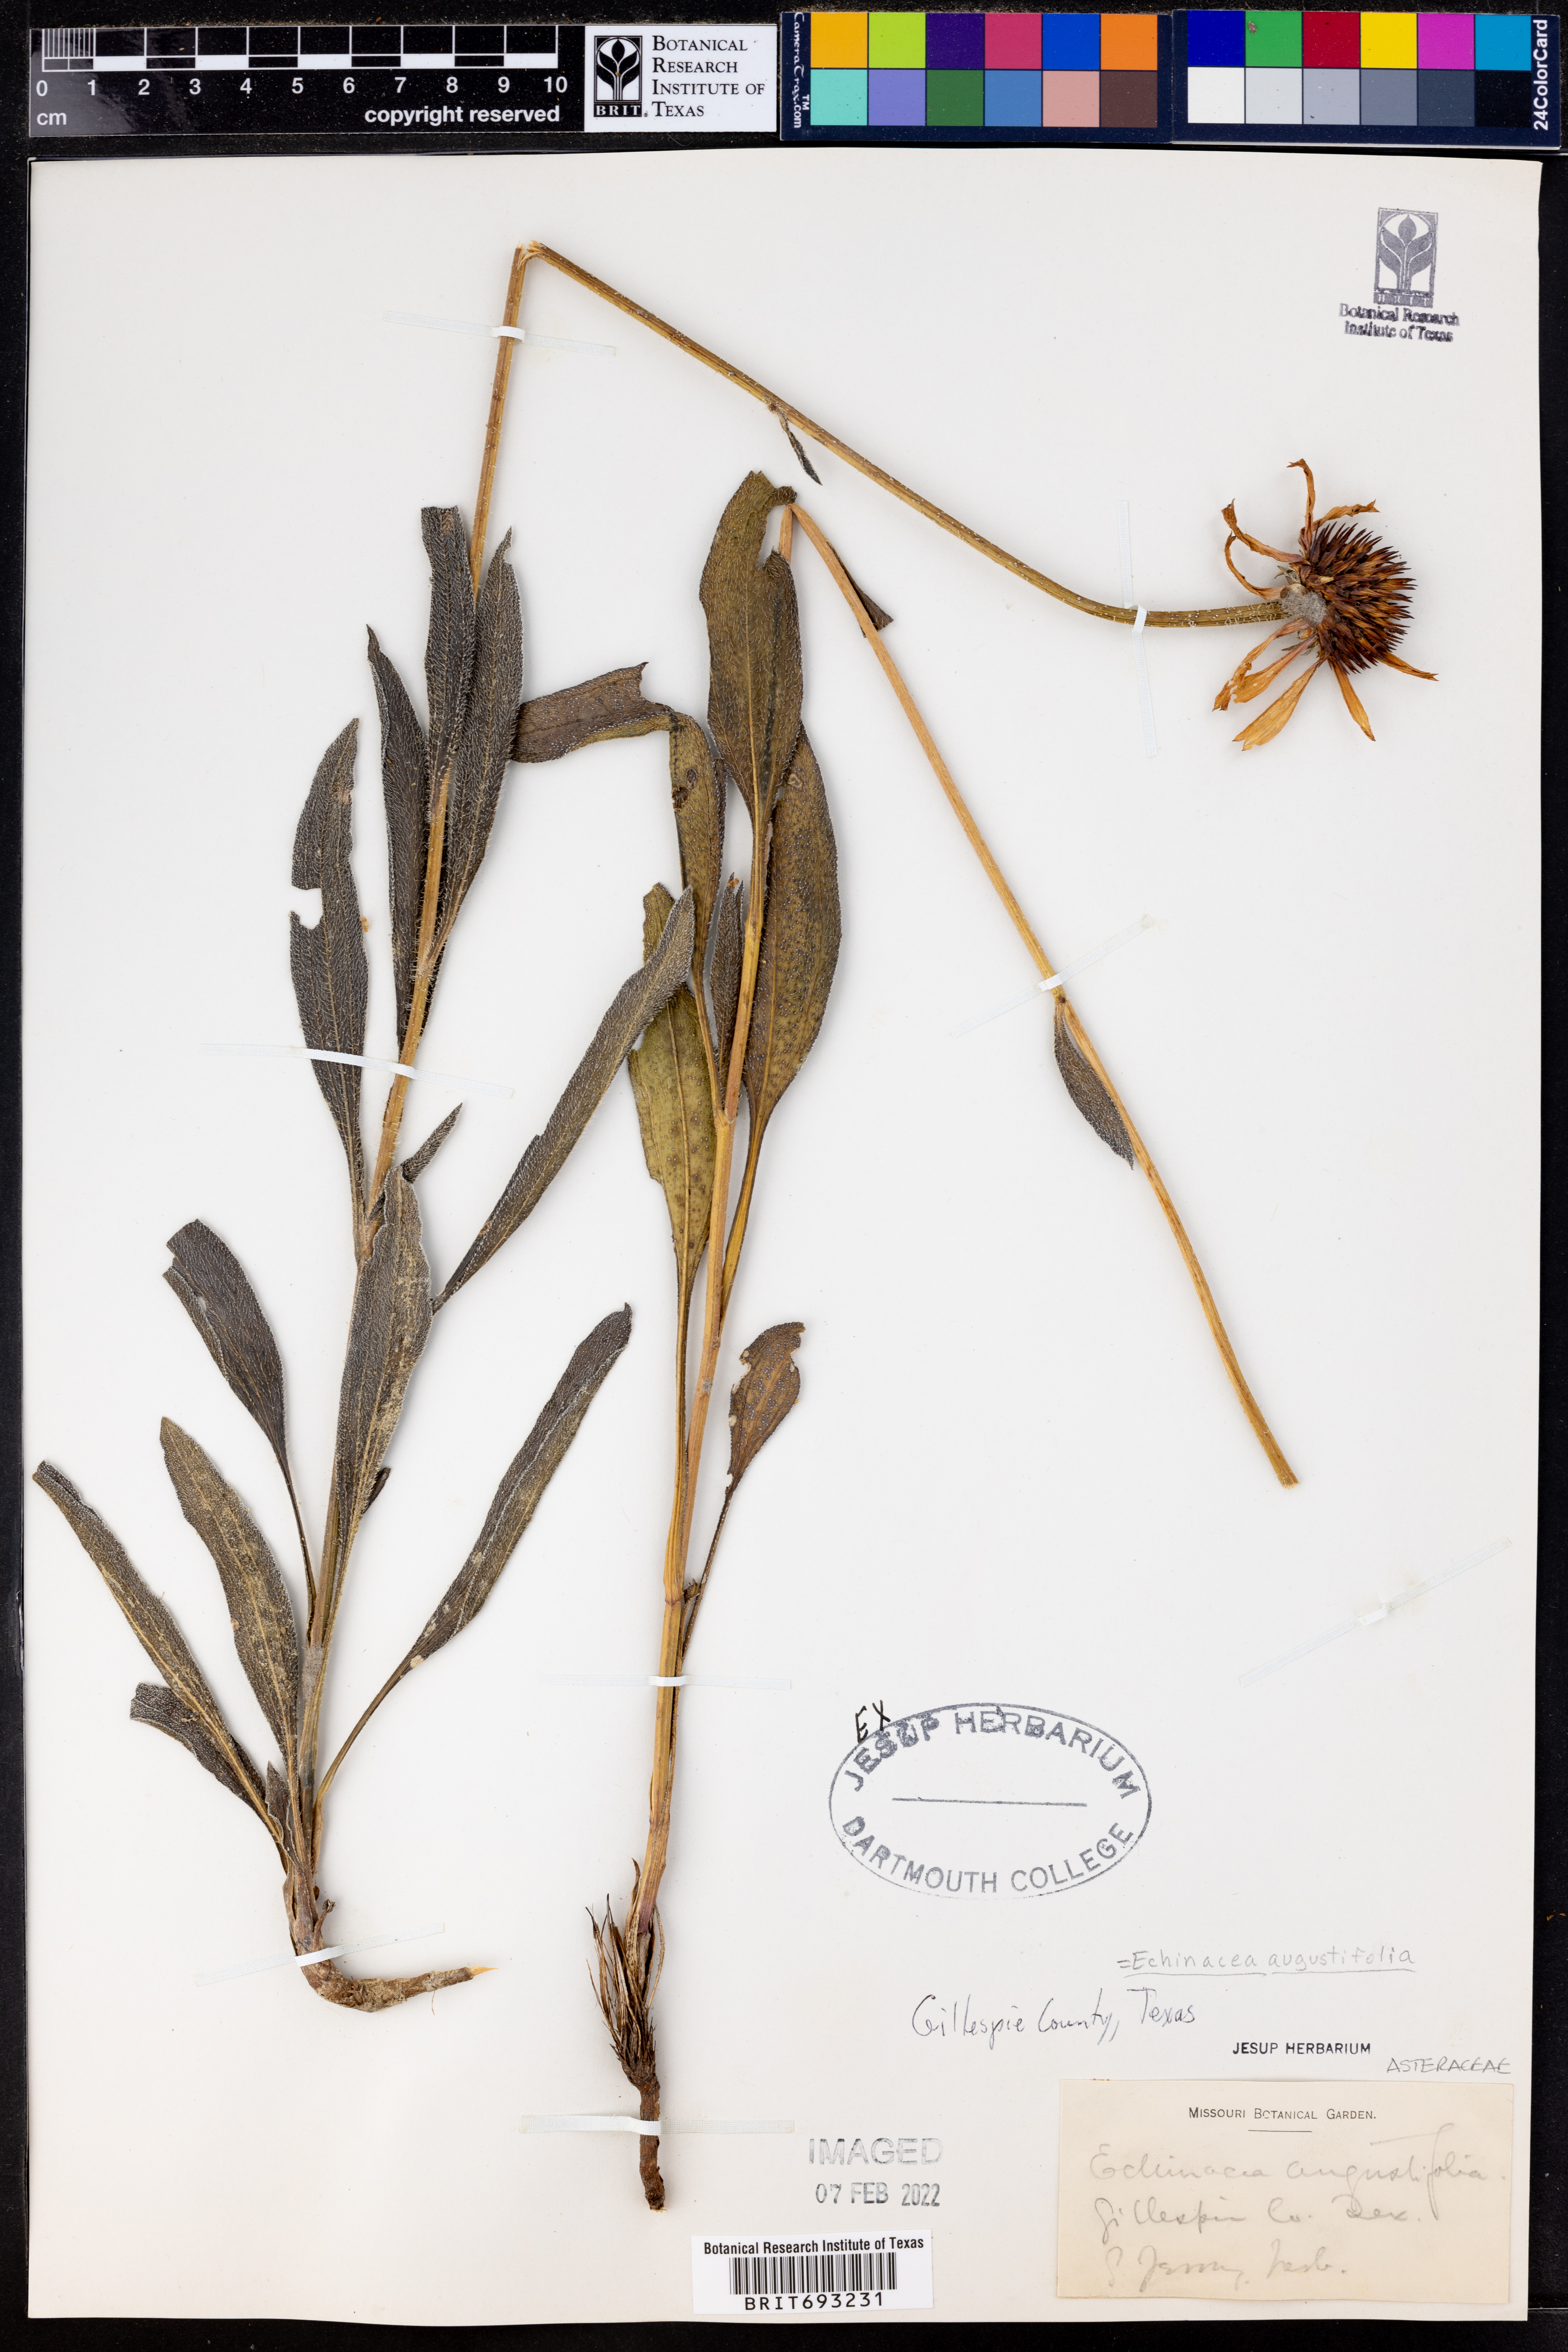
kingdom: Plantae
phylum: Tracheophyta
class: Magnoliopsida
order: Asterales
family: Asteraceae
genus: Echinacea
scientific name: Echinacea angustifolia
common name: Black-sampson echinacea
